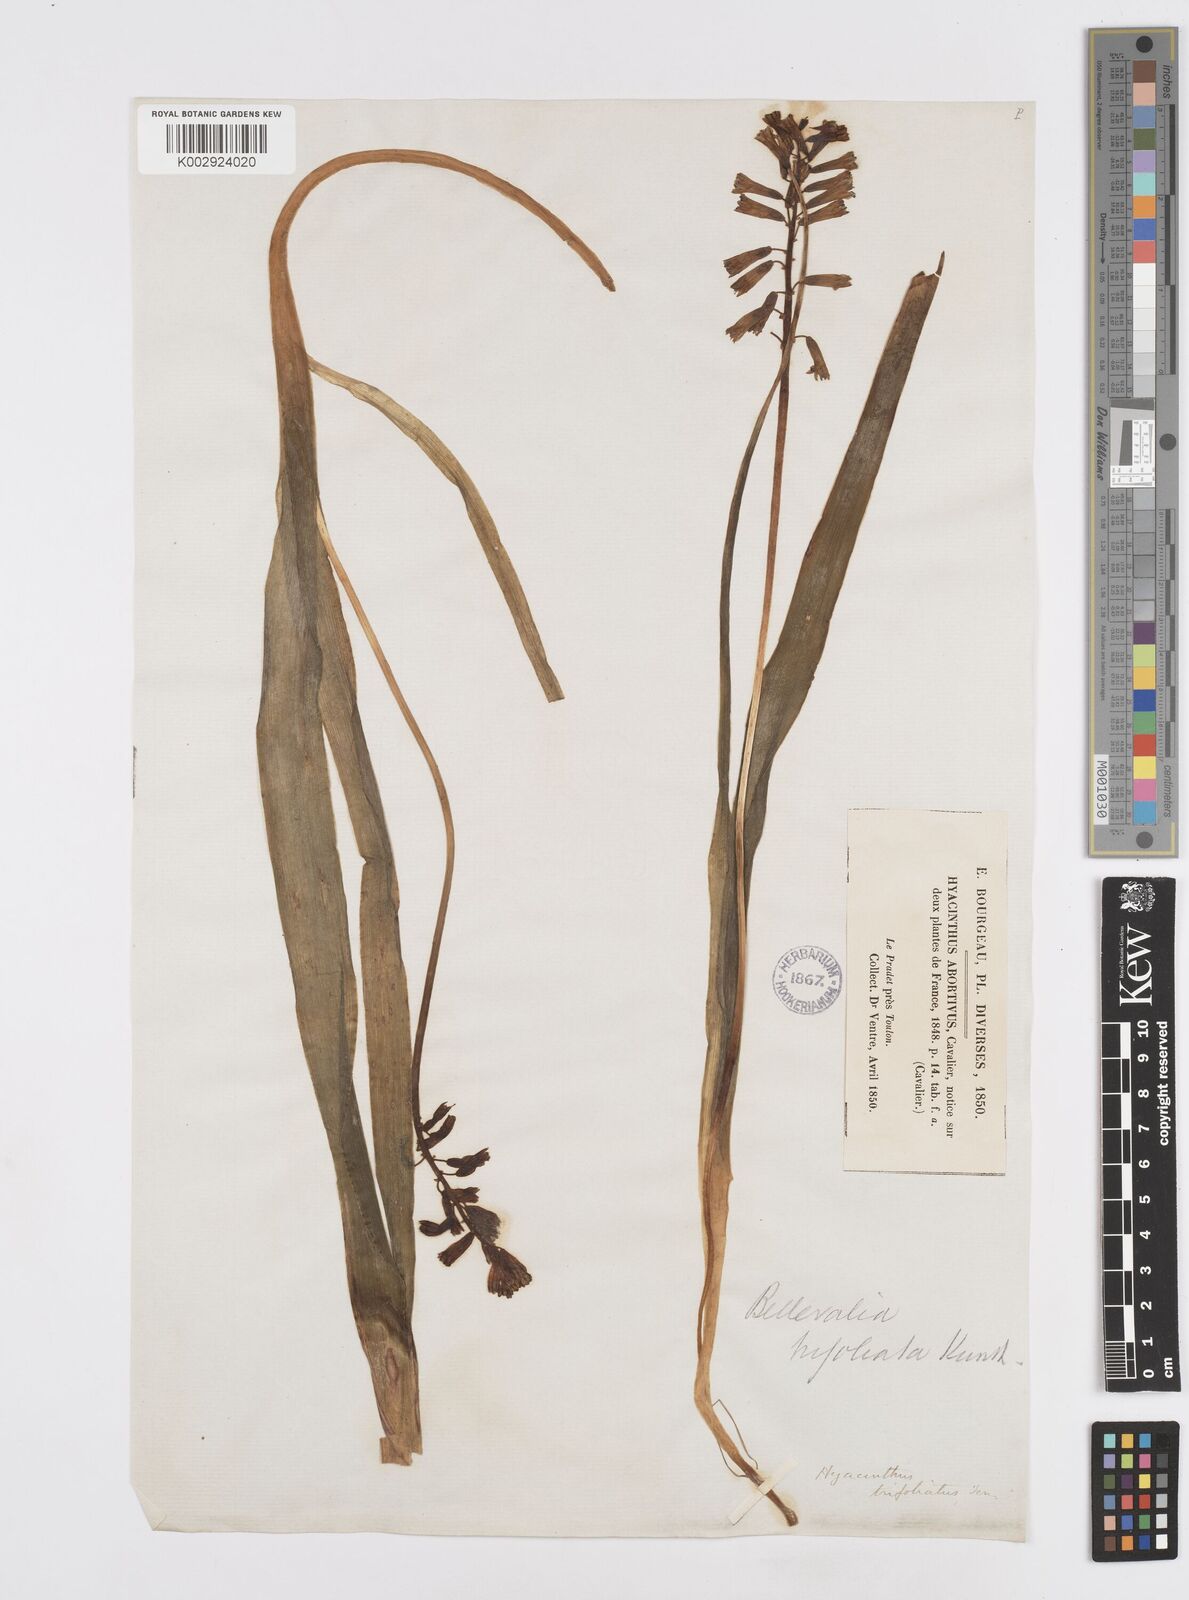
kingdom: Plantae
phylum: Tracheophyta
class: Liliopsida
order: Asparagales
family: Asparagaceae
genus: Bellevalia
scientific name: Bellevalia trifoliata
